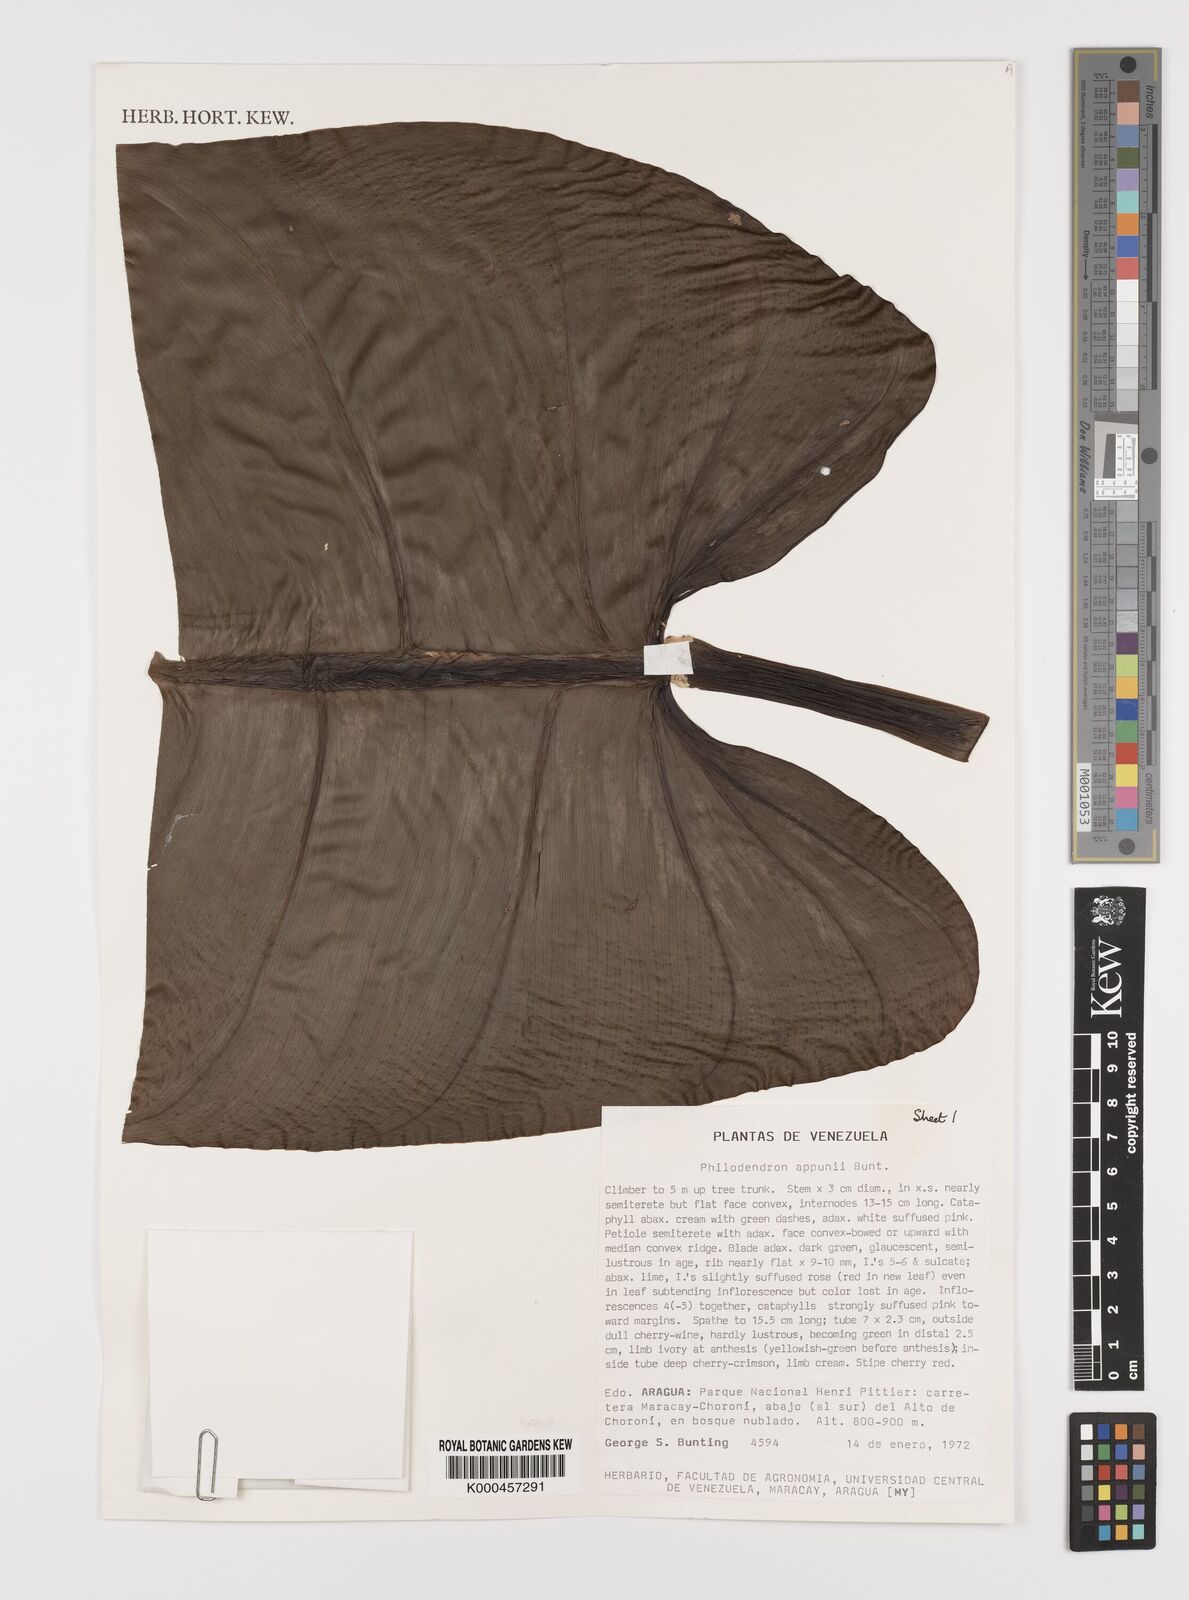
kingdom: Plantae
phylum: Tracheophyta
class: Liliopsida
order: Alismatales
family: Araceae
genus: Philodendron
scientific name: Philodendron appunii
